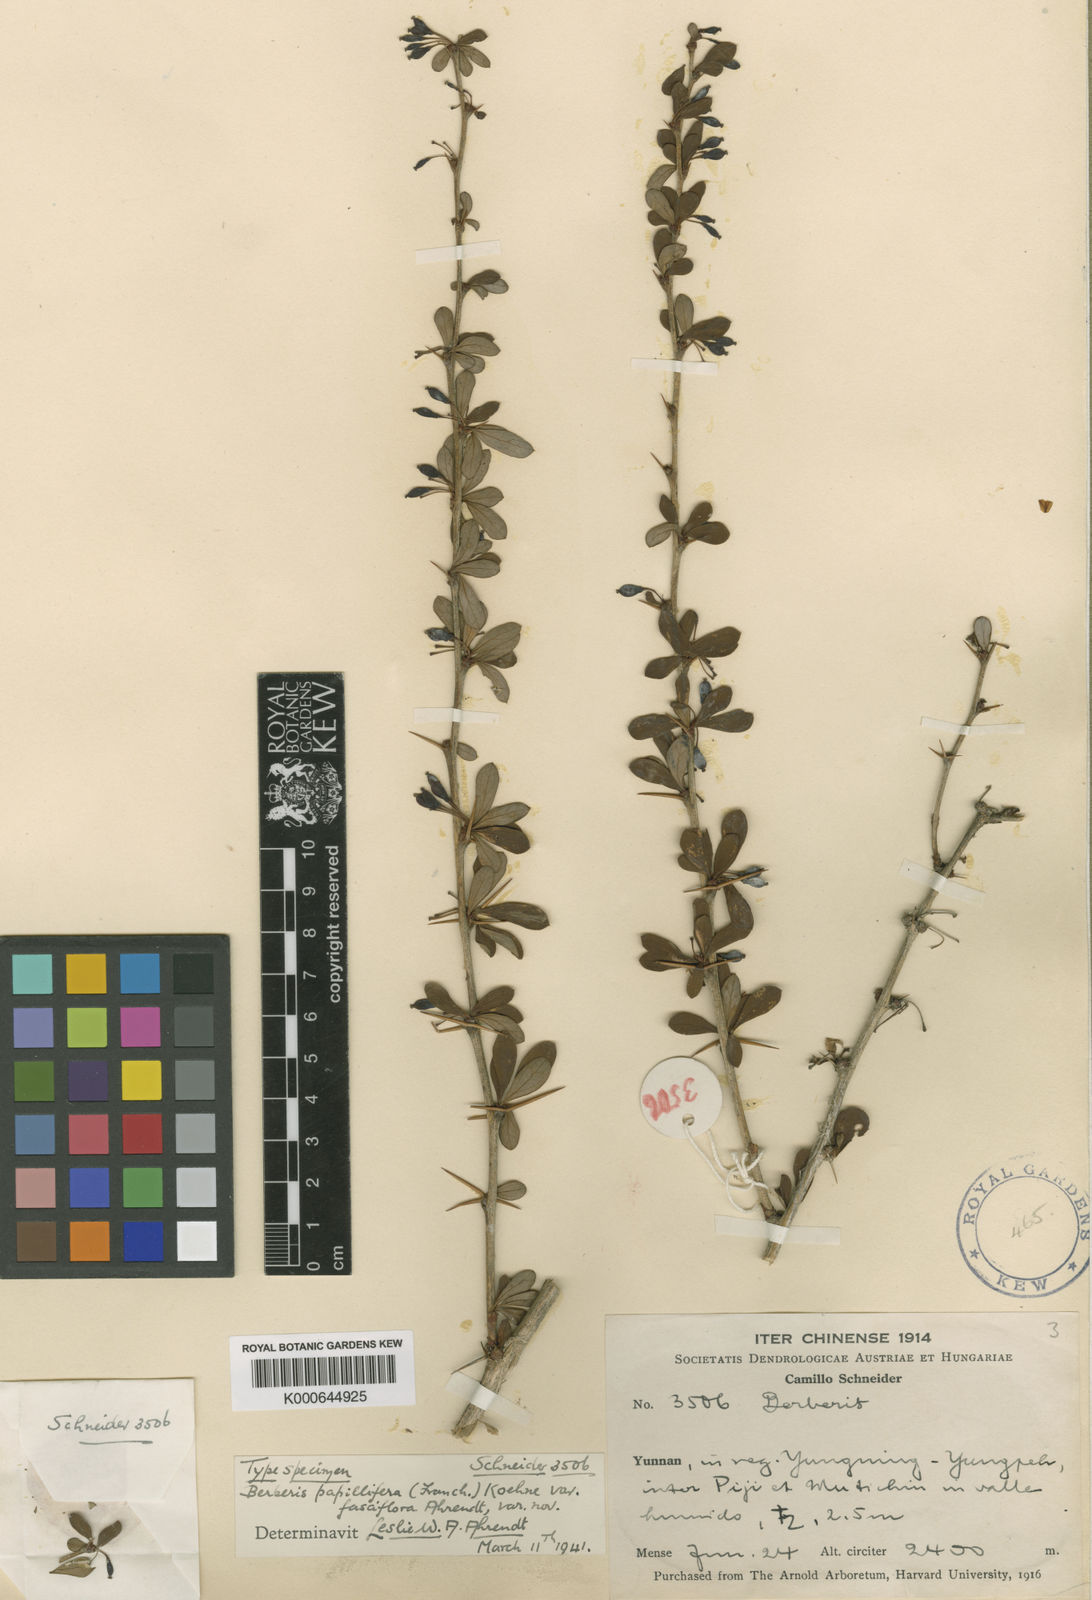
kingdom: Plantae
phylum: Tracheophyta
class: Magnoliopsida
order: Ranunculales
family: Berberidaceae
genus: Berberis
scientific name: Berberis papillifera
